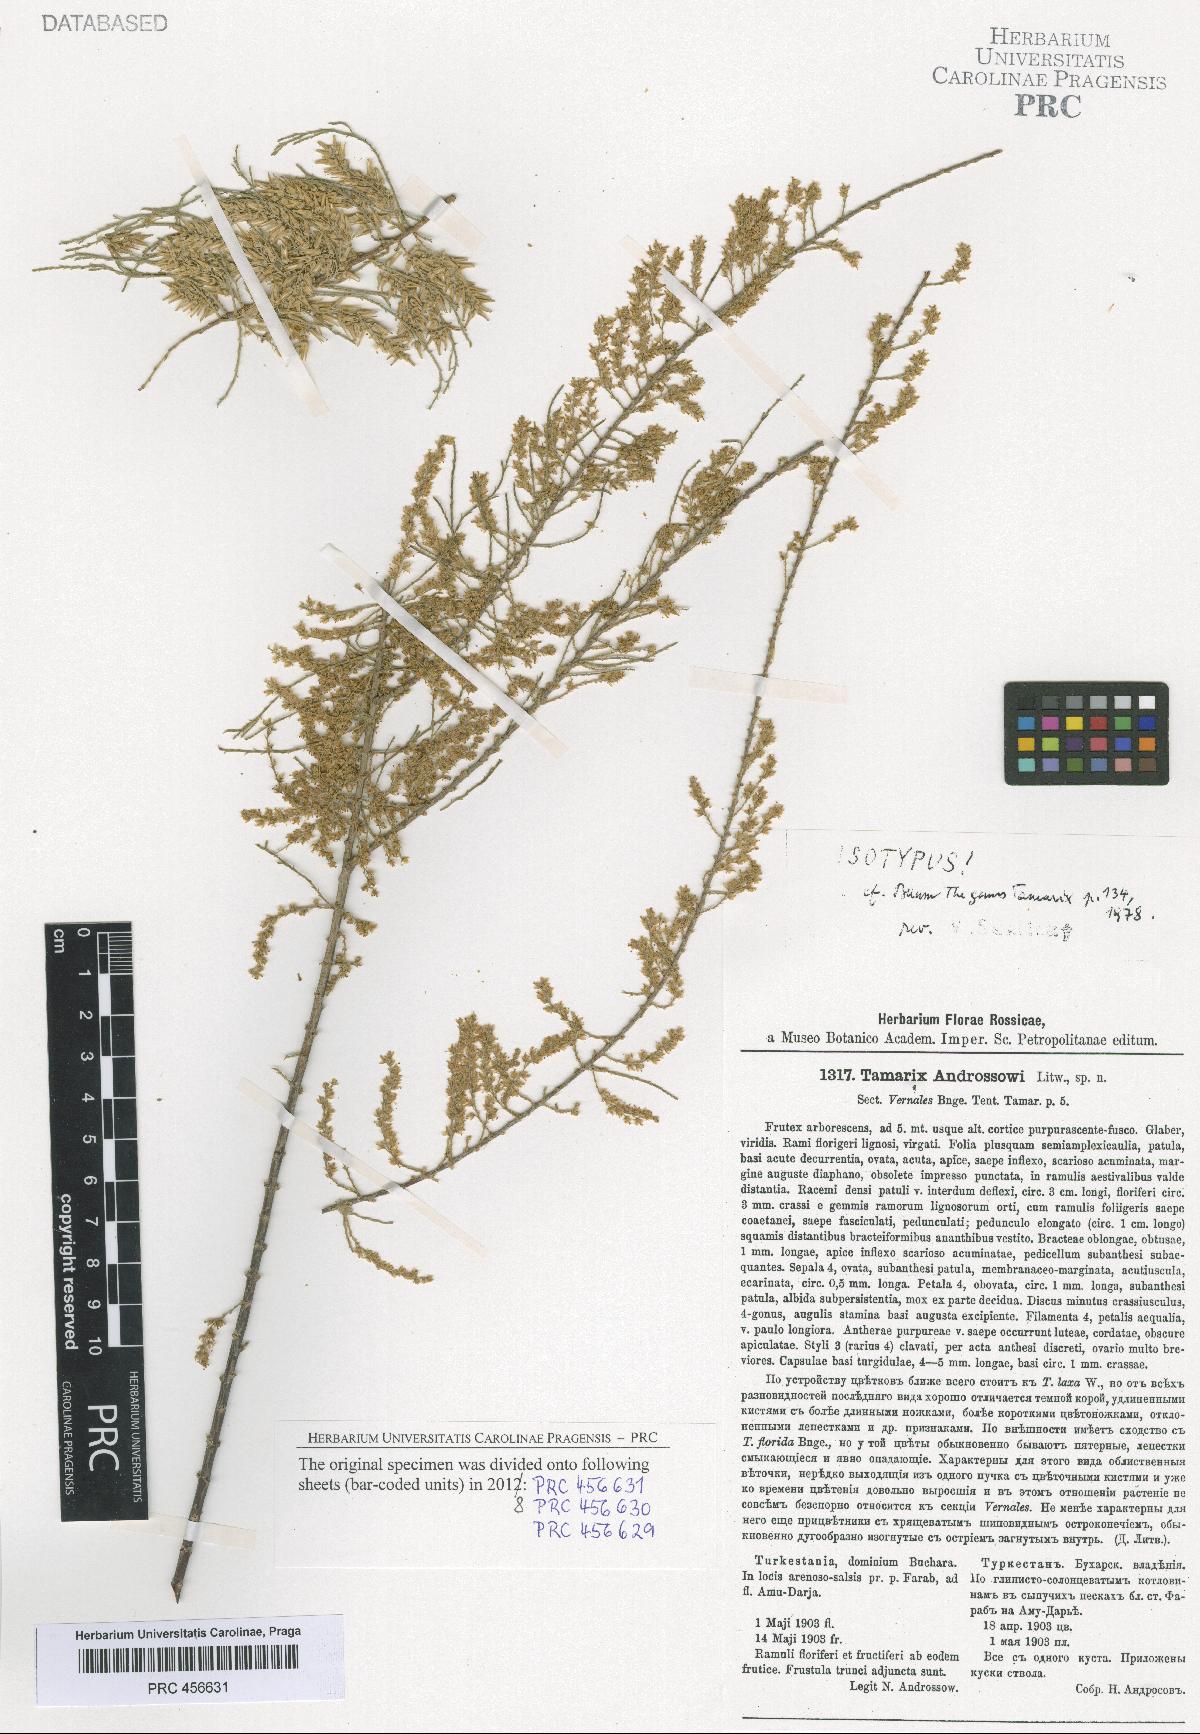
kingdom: Plantae
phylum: Tracheophyta
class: Magnoliopsida
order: Caryophyllales
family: Tamaricaceae
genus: Tamarix
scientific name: Tamarix androssowii
